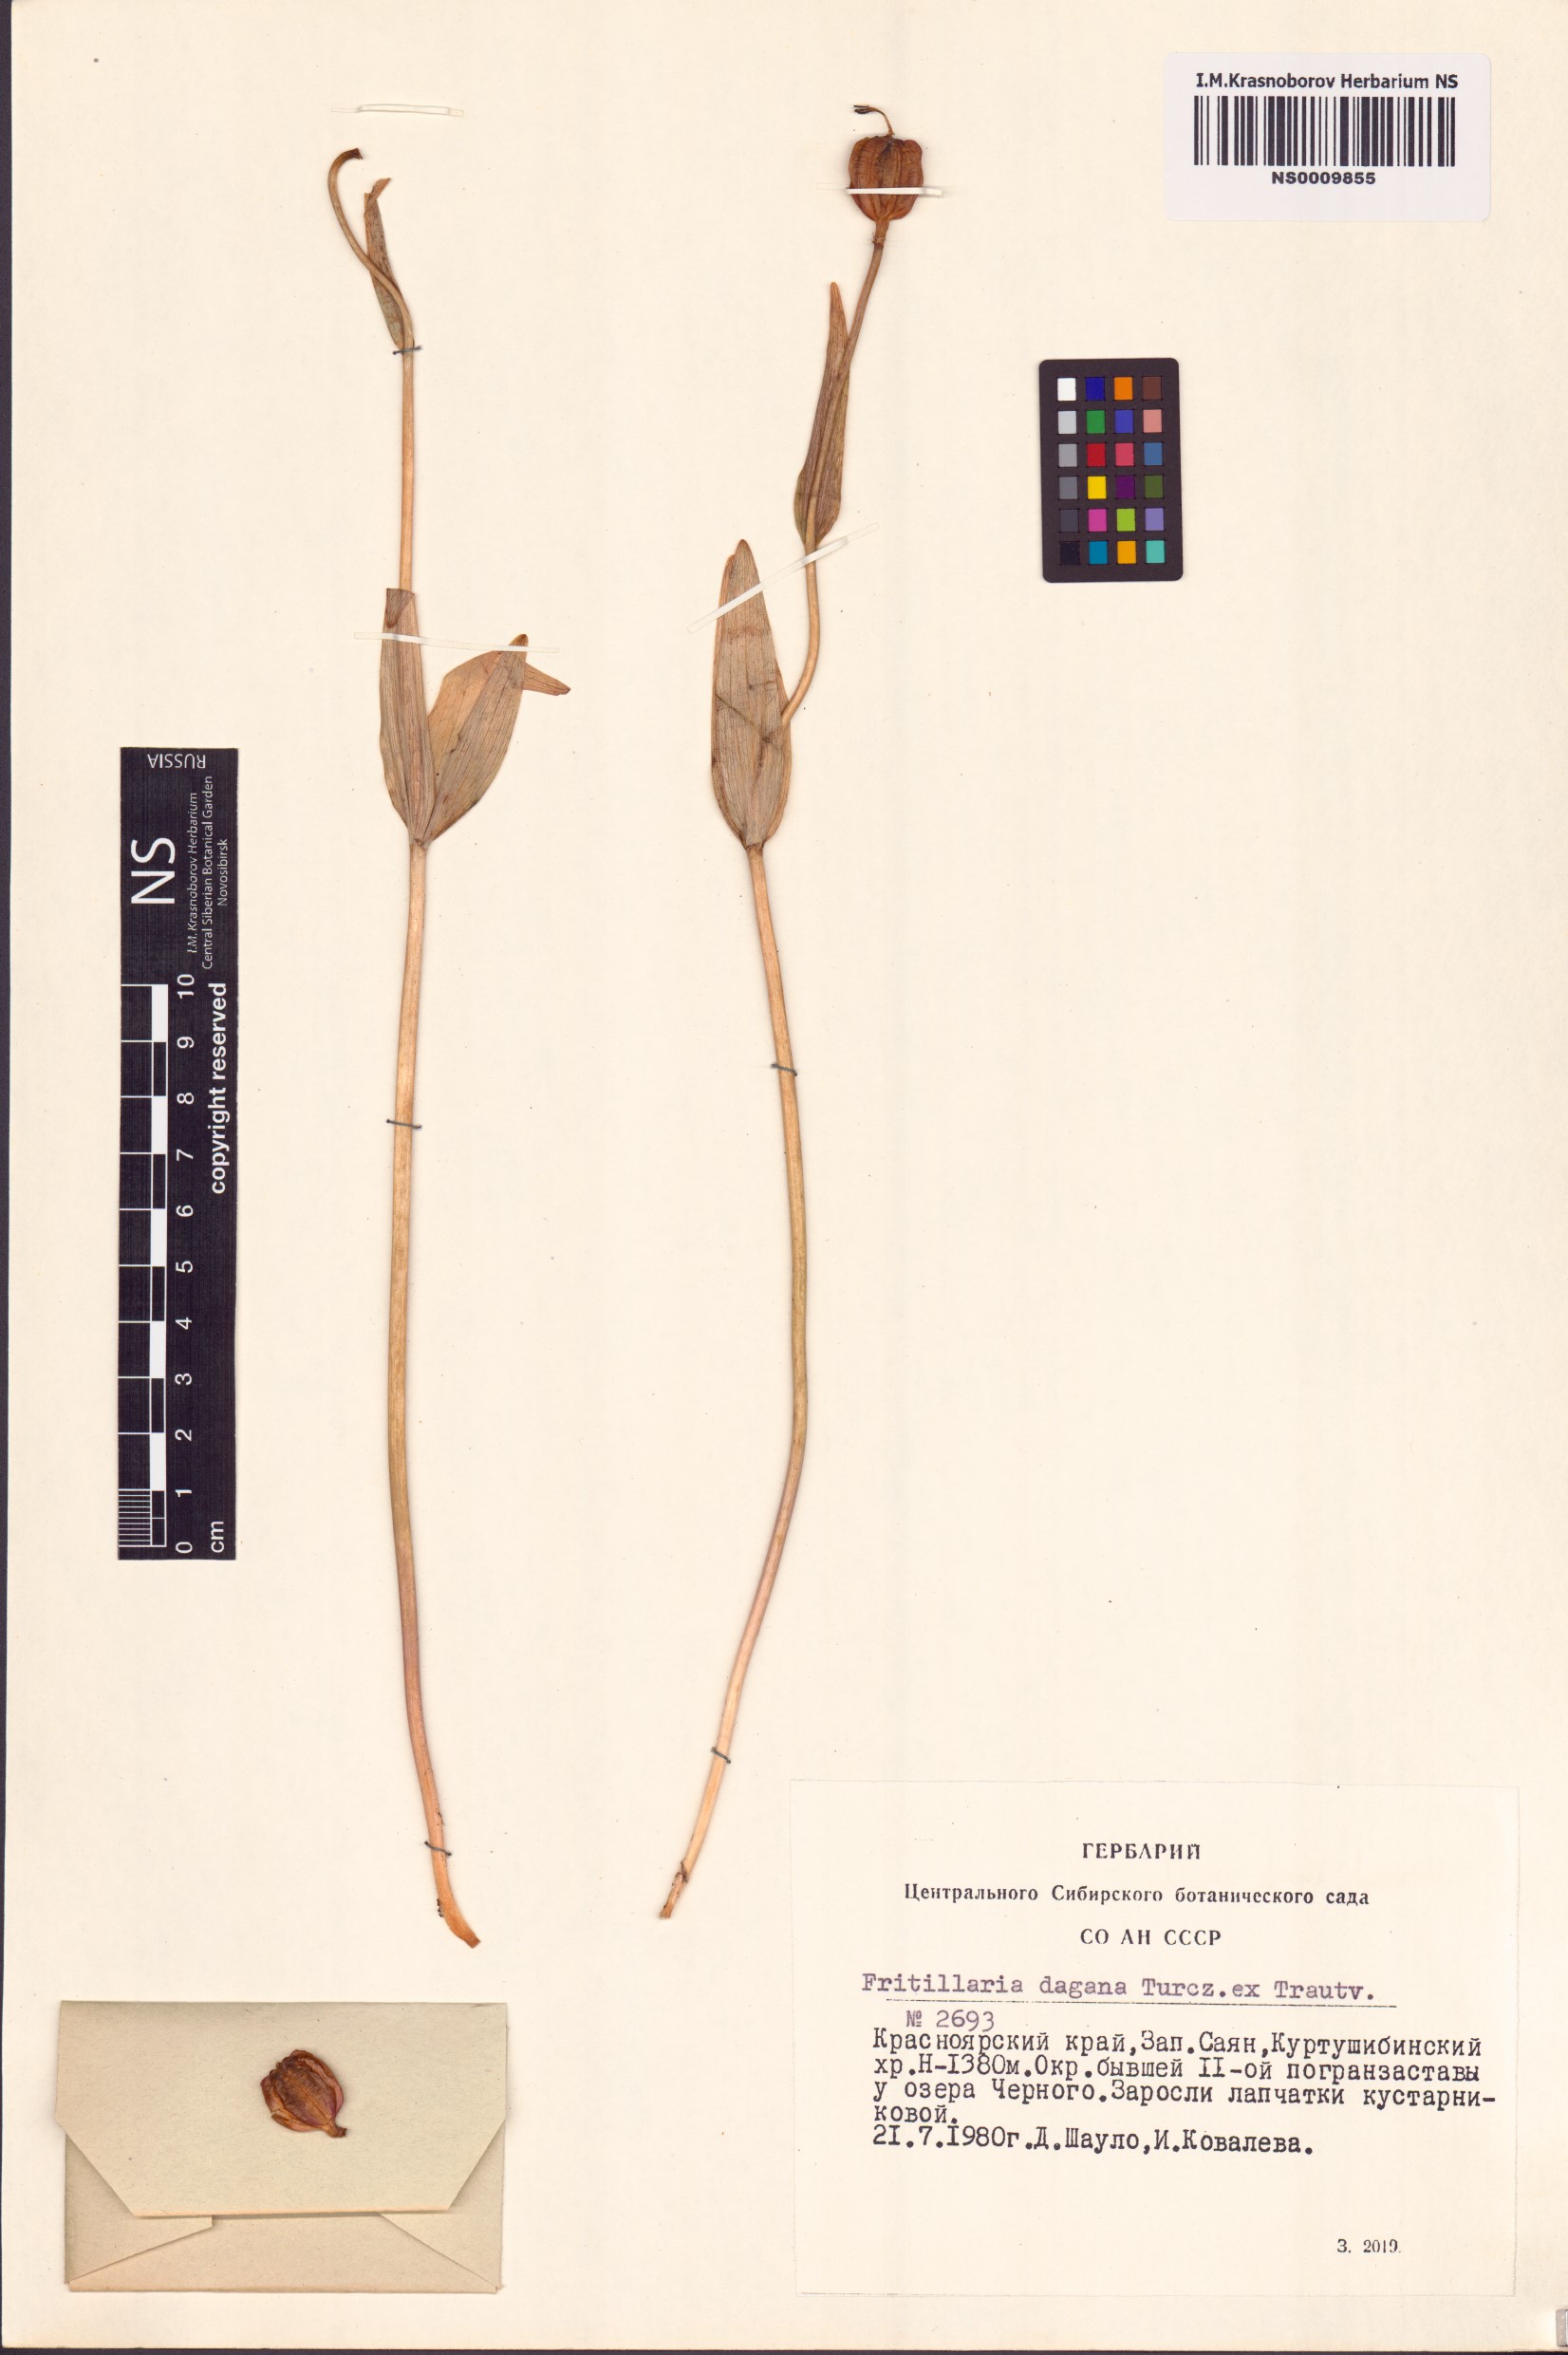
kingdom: Plantae
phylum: Tracheophyta
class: Liliopsida
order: Liliales
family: Liliaceae
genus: Fritillaria
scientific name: Fritillaria dagana
